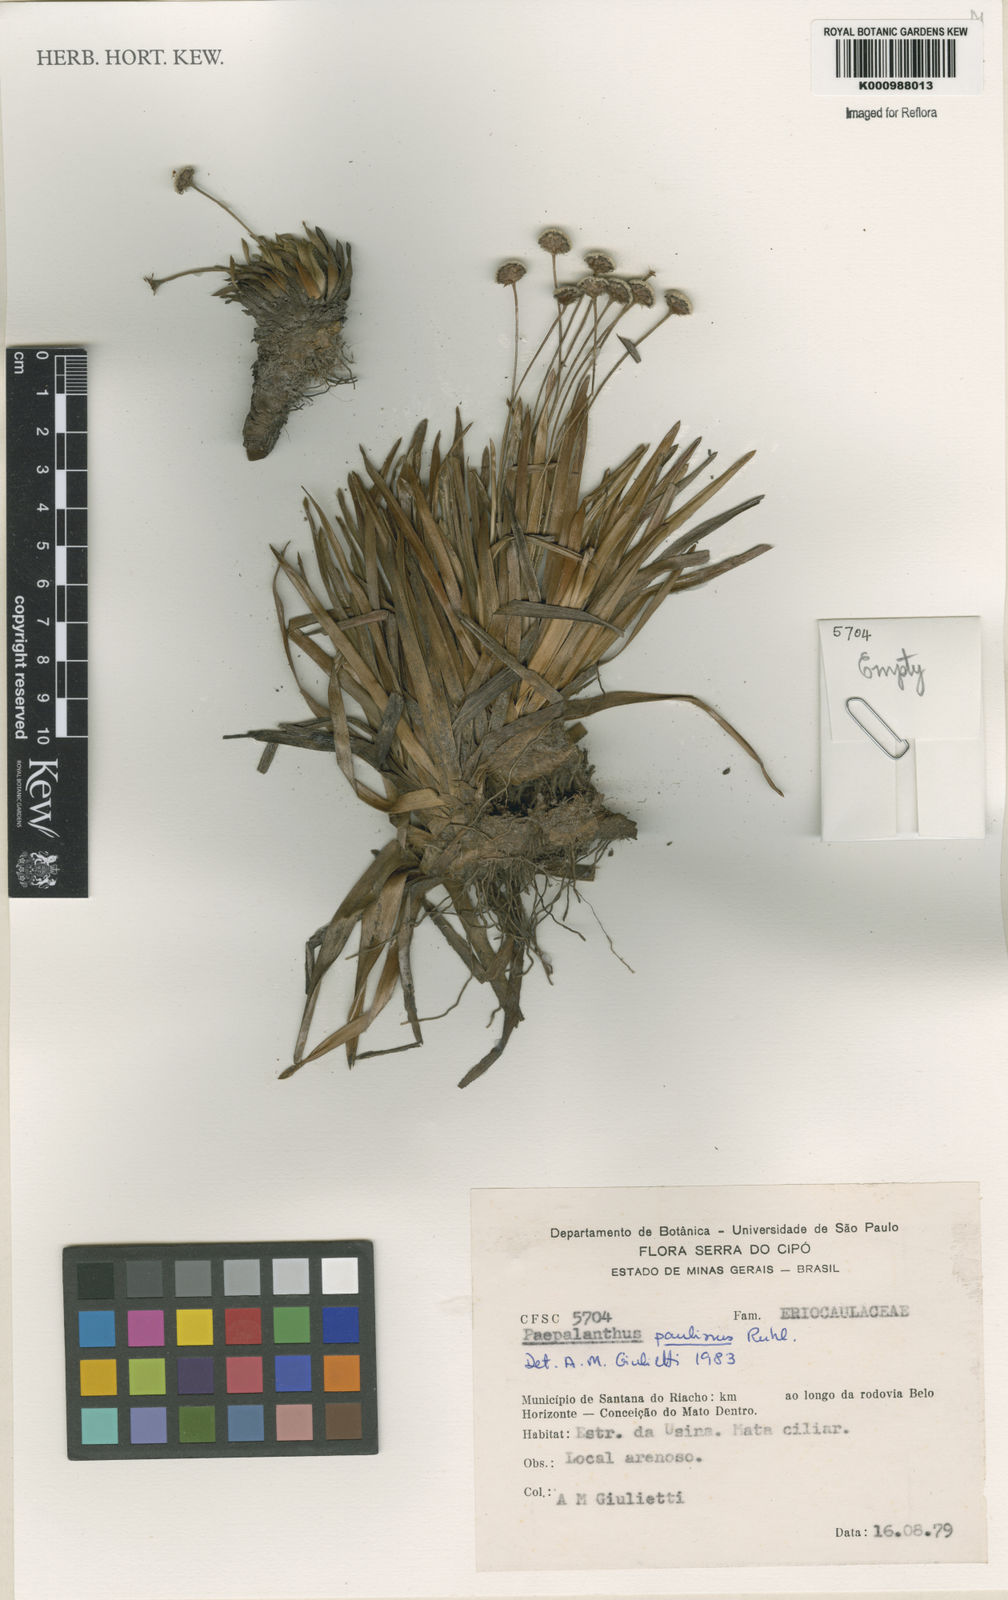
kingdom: Plantae
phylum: Tracheophyta
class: Liliopsida
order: Poales
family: Eriocaulaceae
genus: Paepalanthus
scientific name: Paepalanthus paulinus
